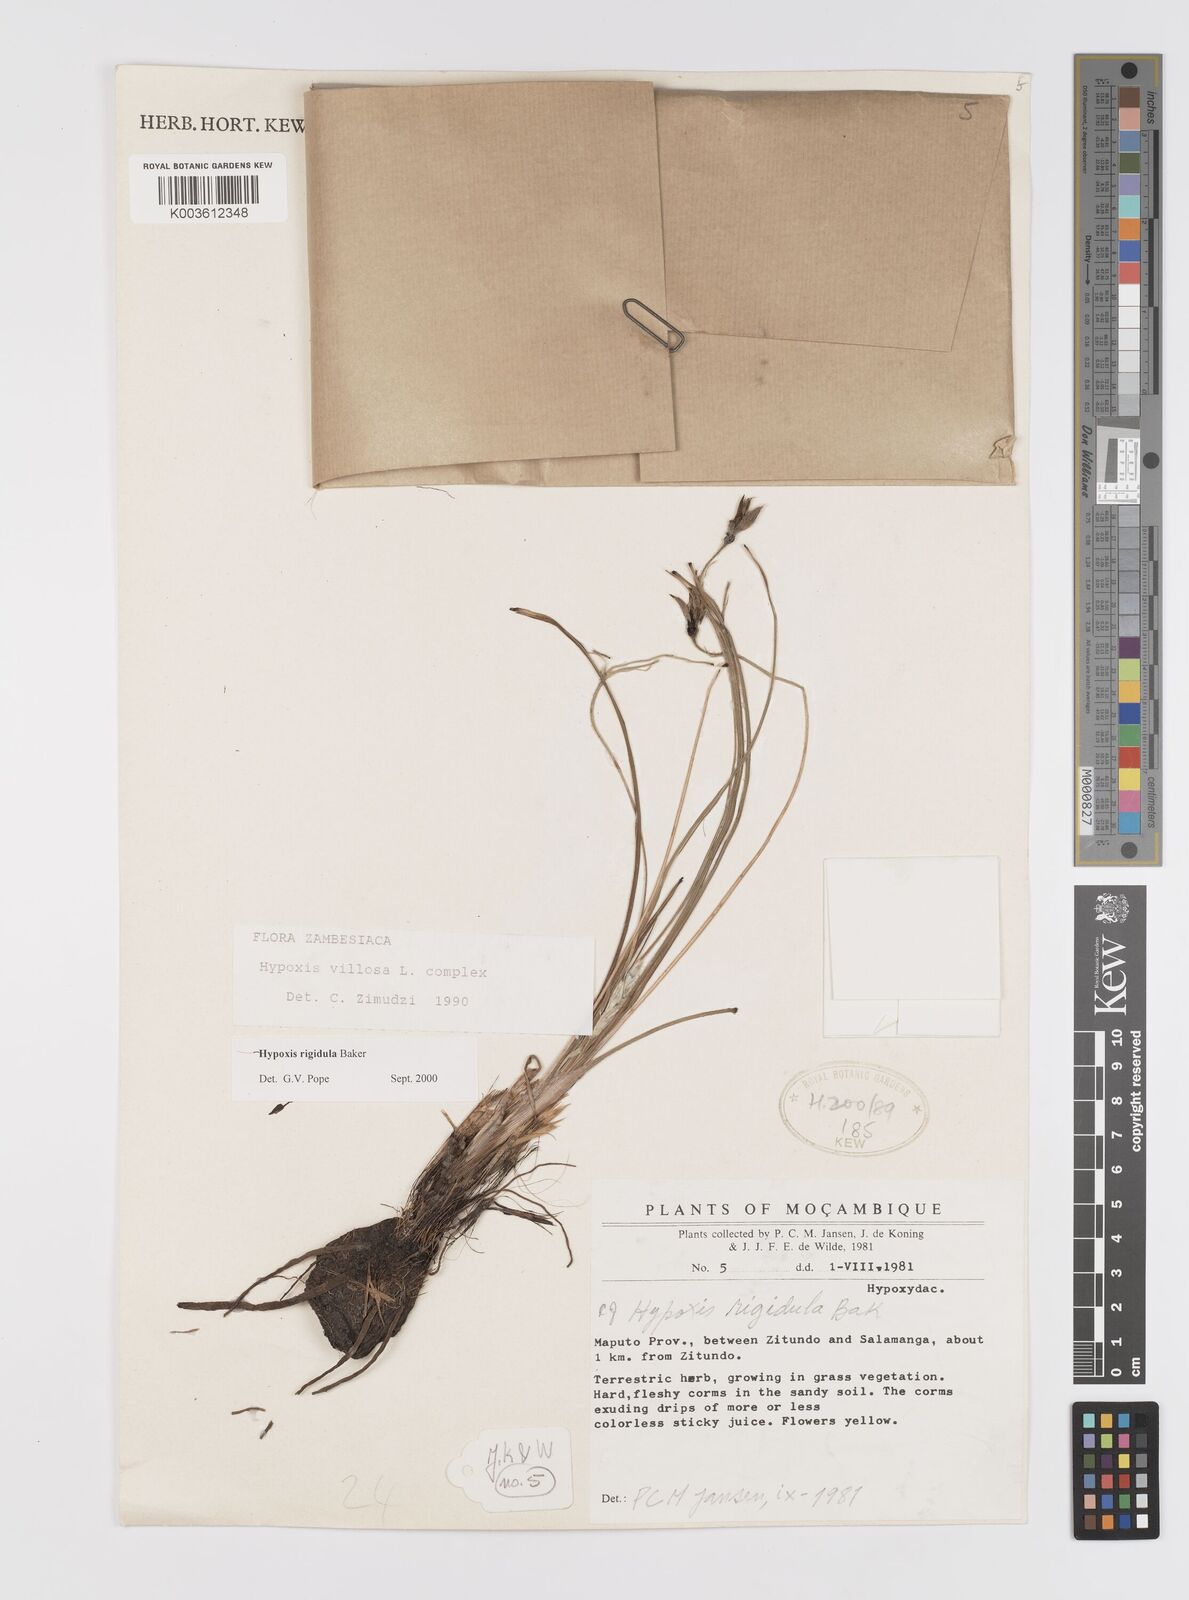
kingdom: Plantae
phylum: Tracheophyta
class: Liliopsida
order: Asparagales
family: Hypoxidaceae
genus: Hypoxis
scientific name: Hypoxis rigidula
